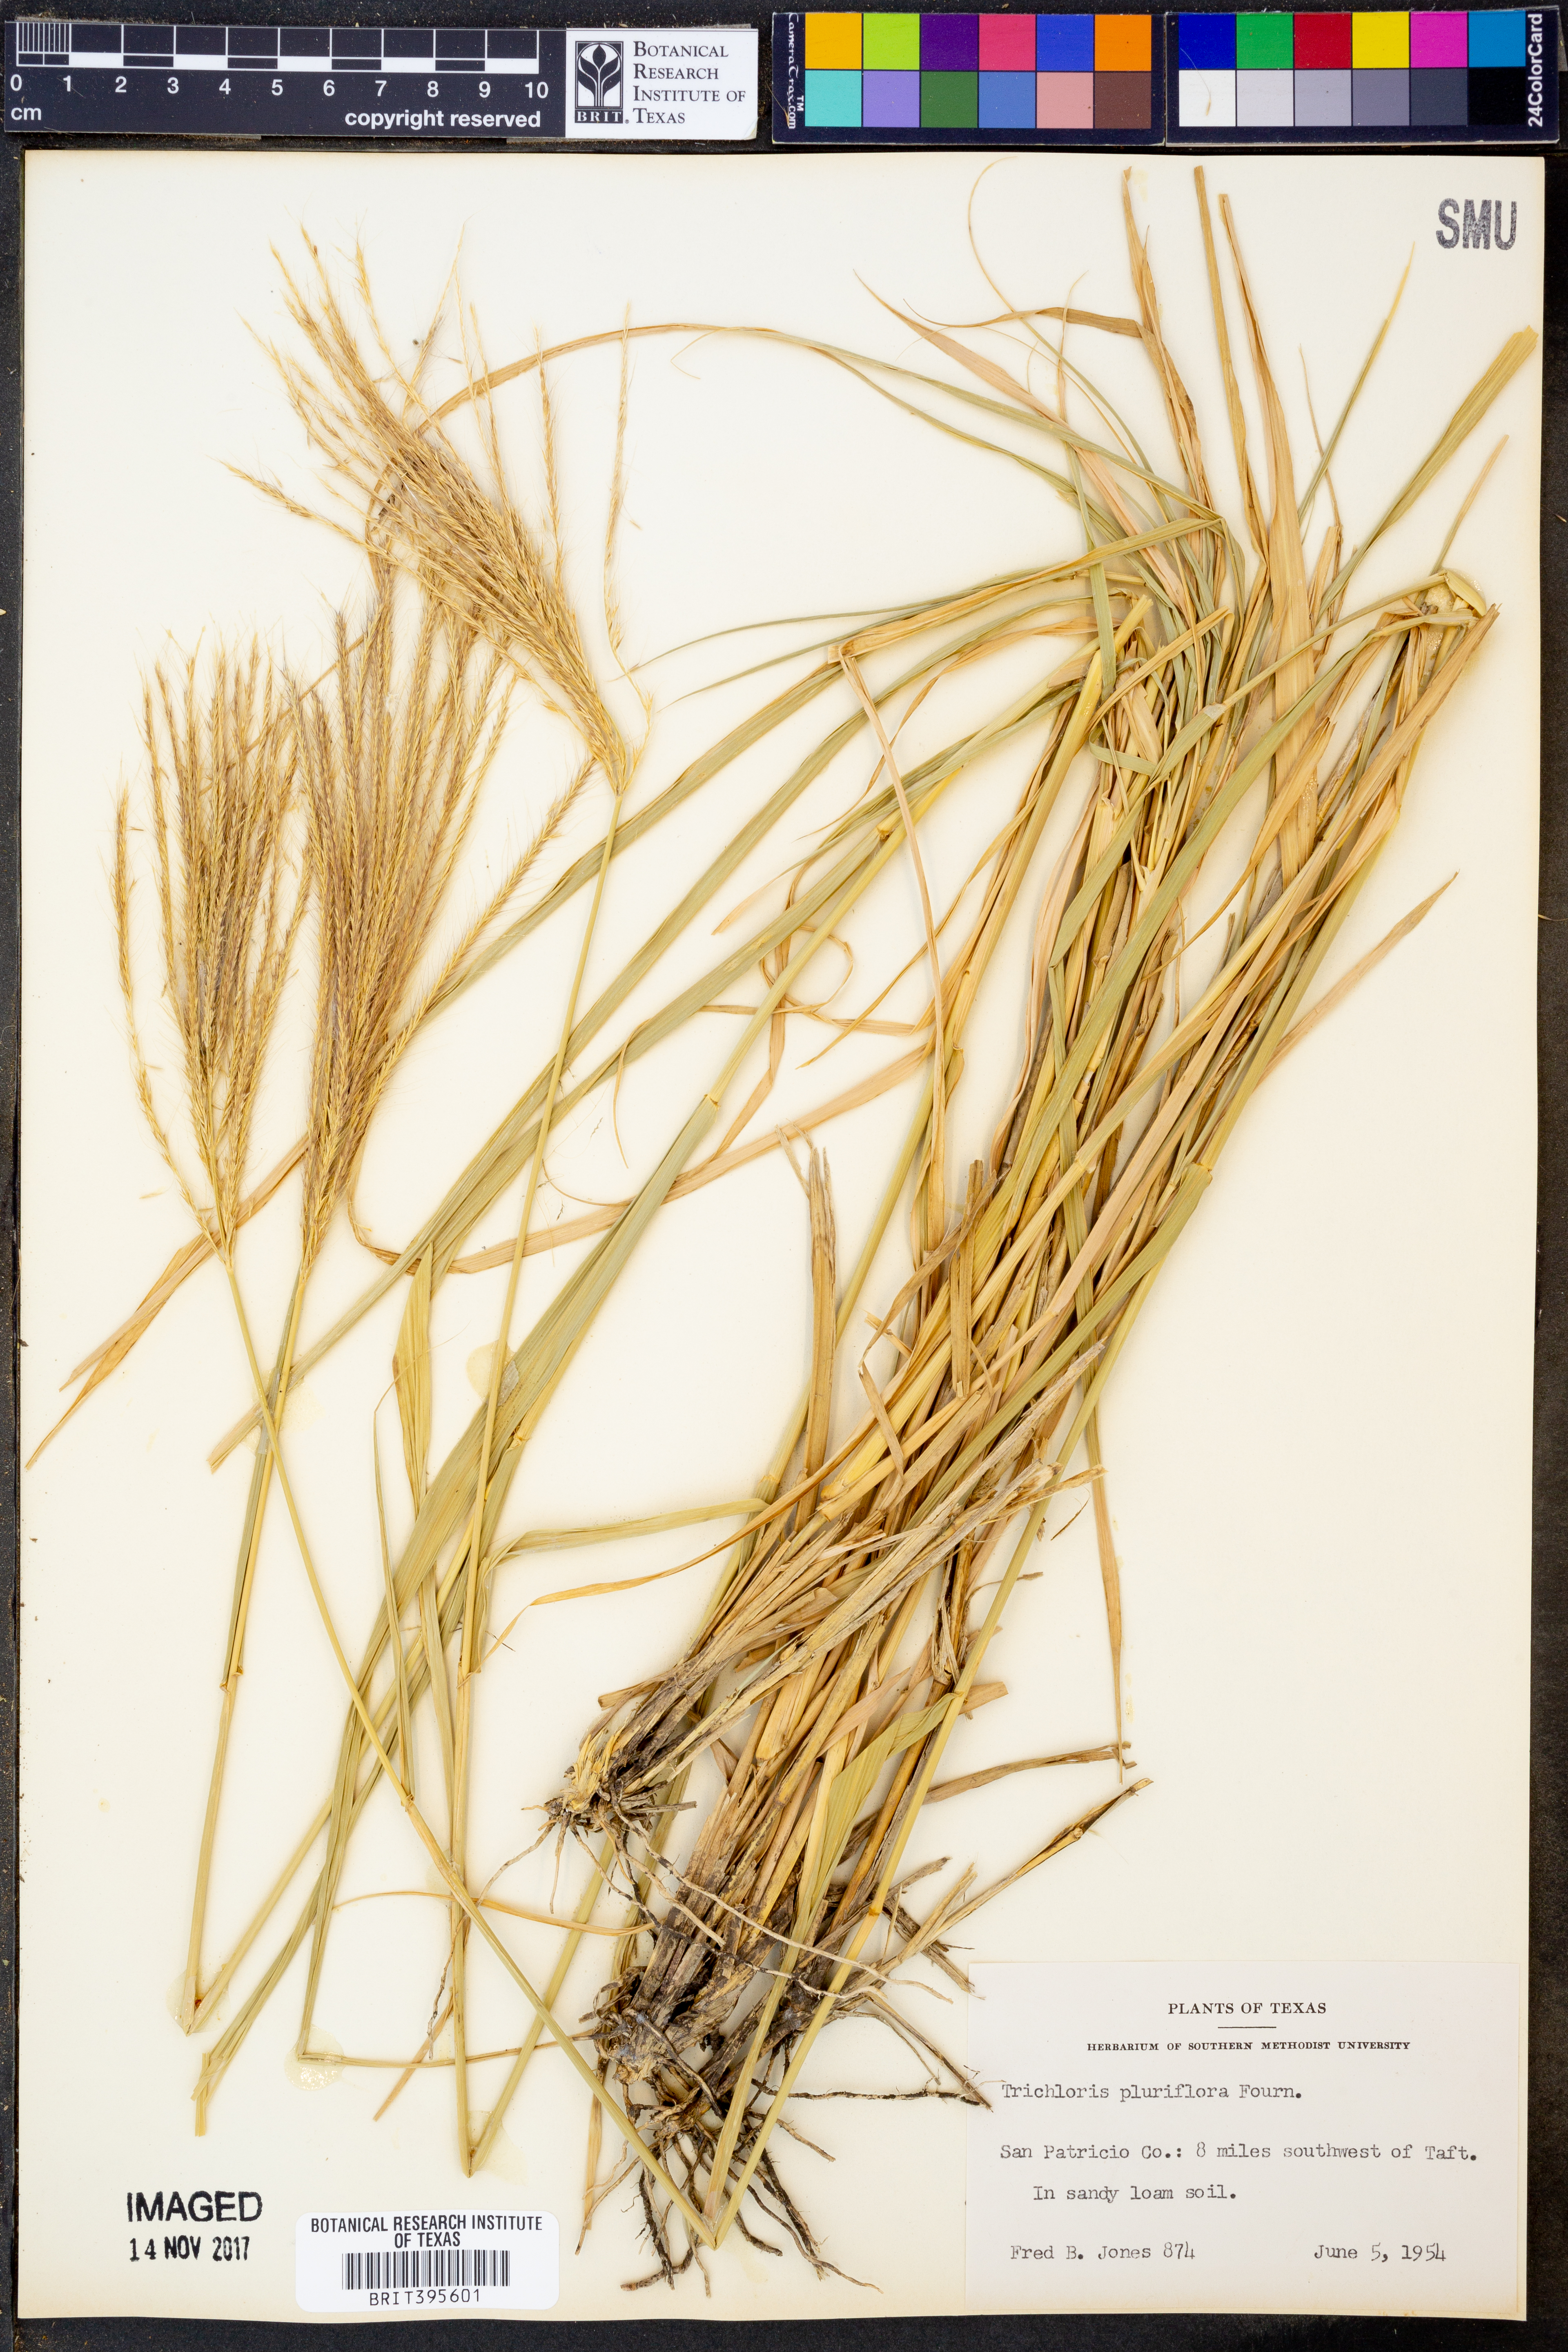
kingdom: Plantae
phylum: Tracheophyta
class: Liliopsida
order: Poales
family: Poaceae
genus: Leptochloa
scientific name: Leptochloa pluriflora
